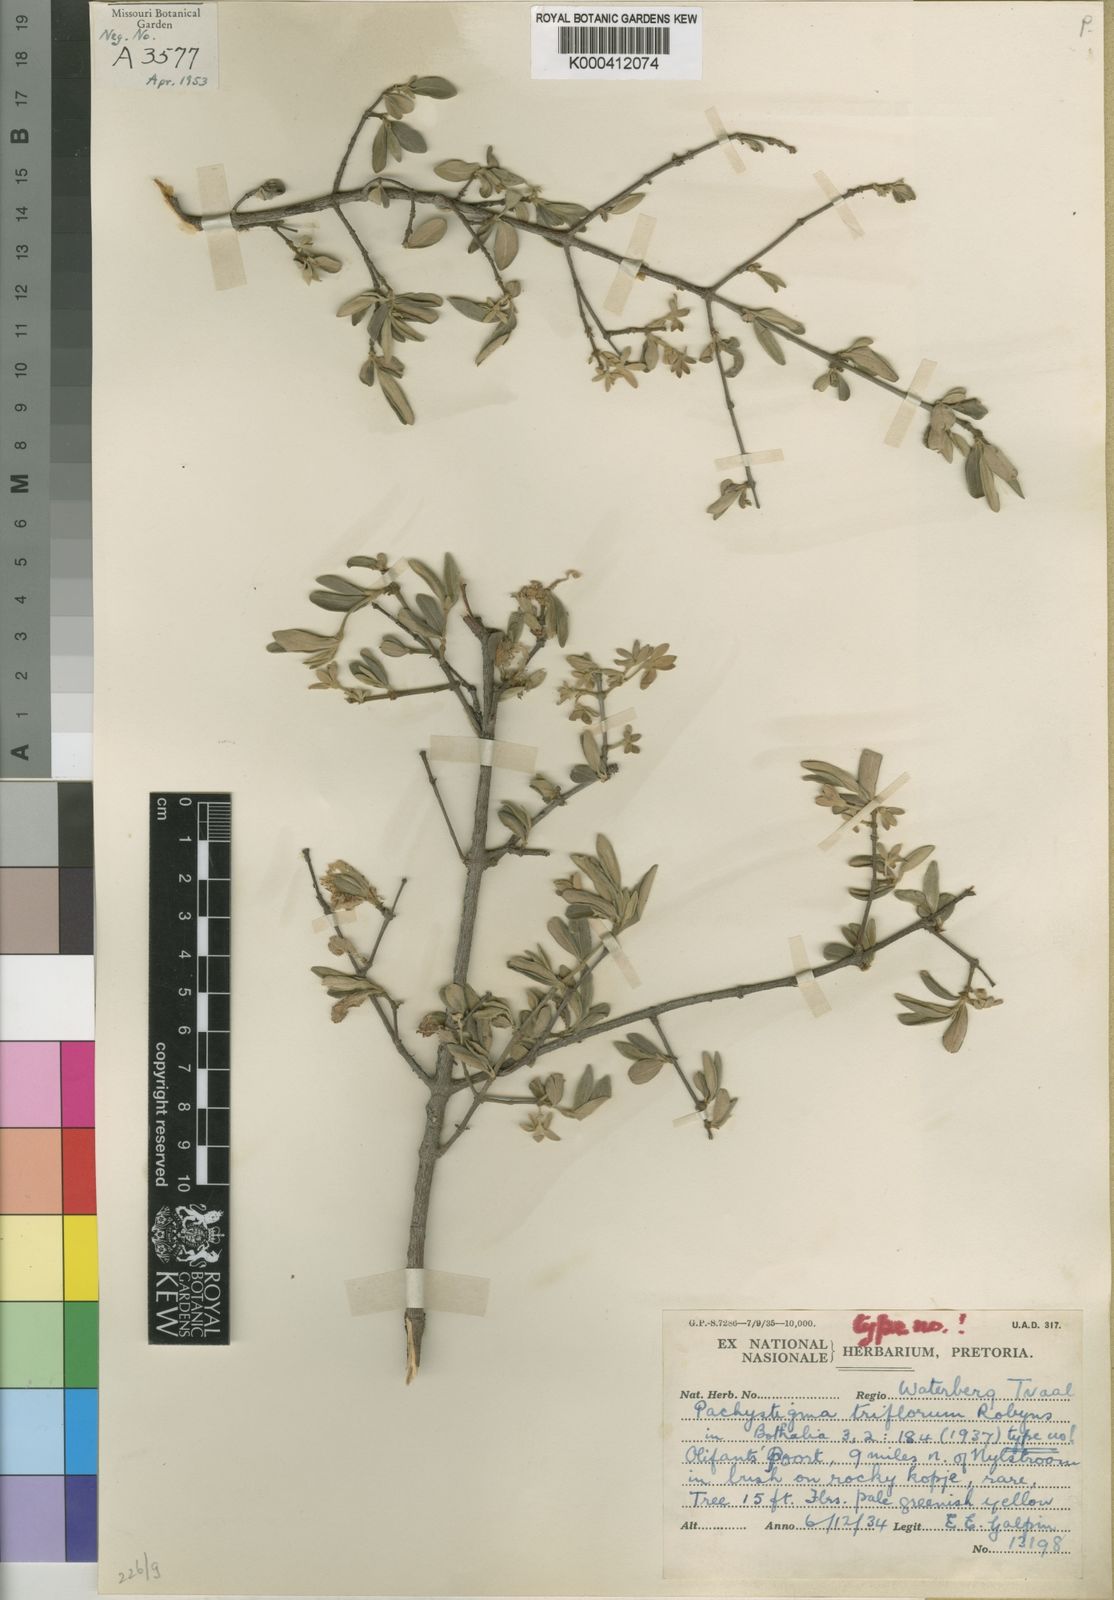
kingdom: Plantae
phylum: Tracheophyta
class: Magnoliopsida
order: Gentianales
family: Rubiaceae
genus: Vangueria
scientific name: Vangueria triflora
